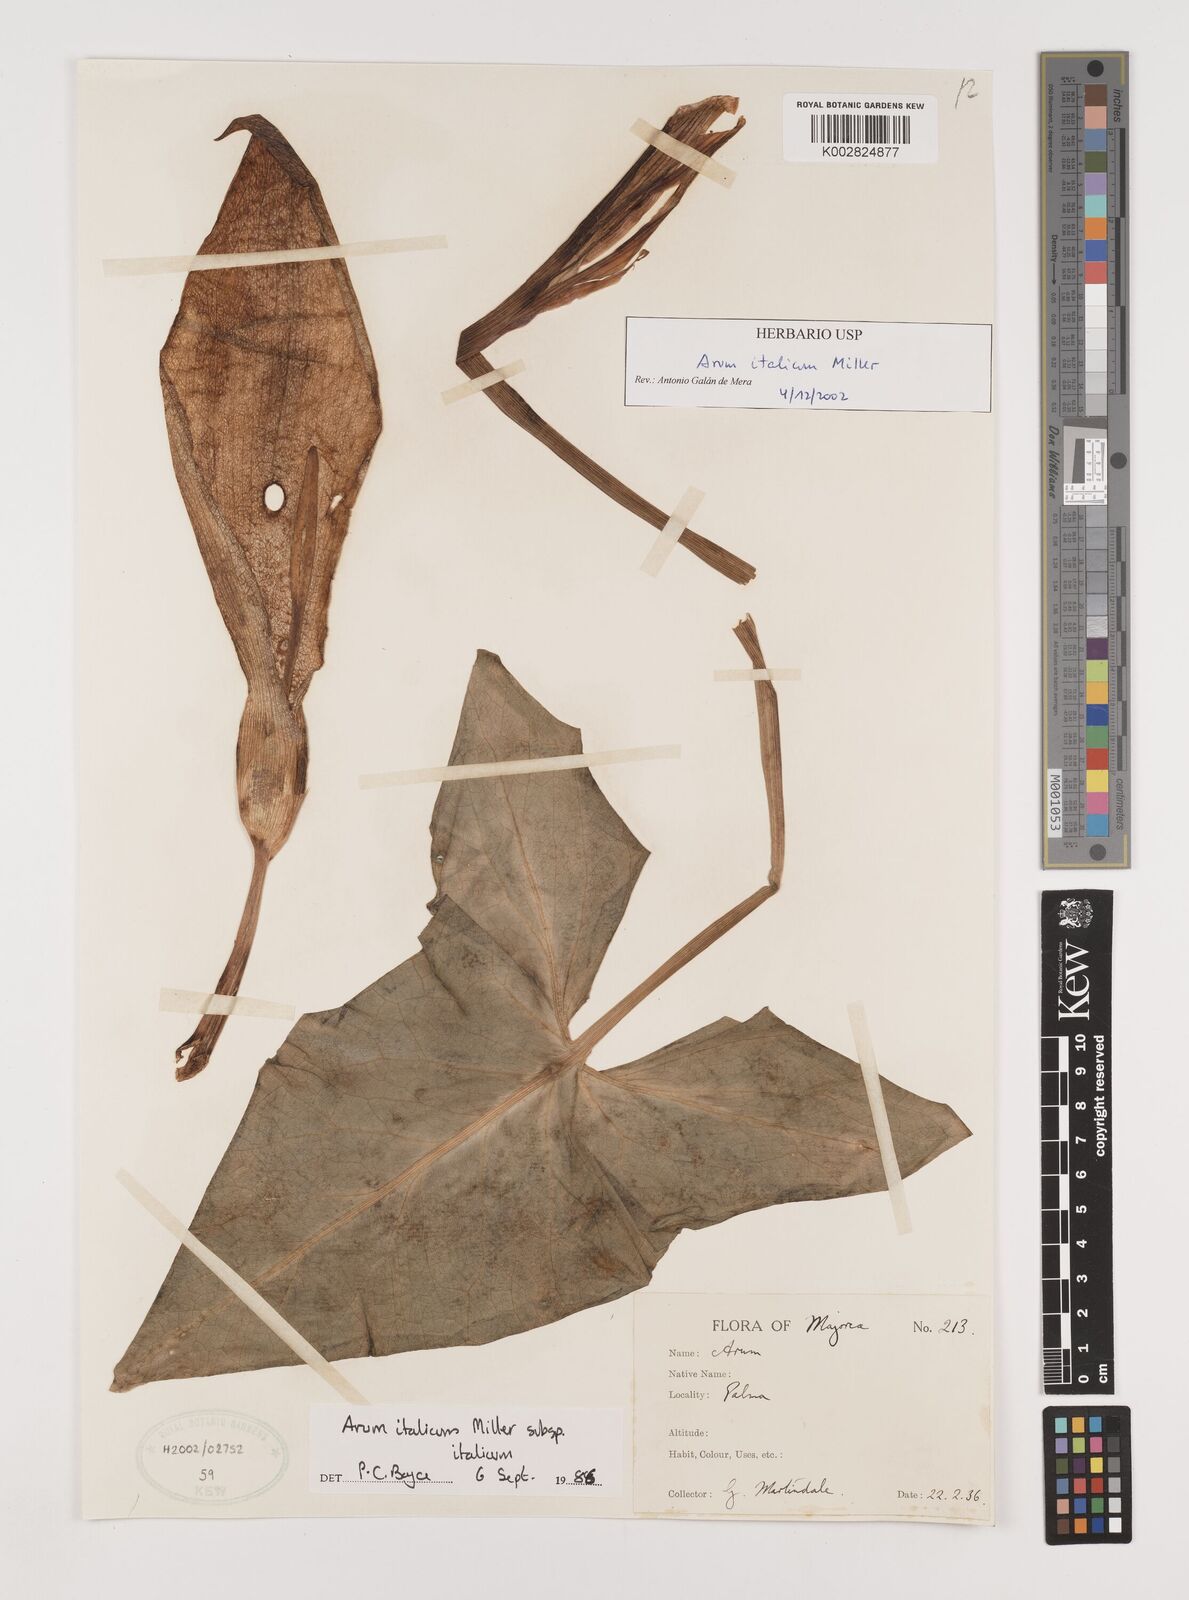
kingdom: Plantae
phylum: Tracheophyta
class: Liliopsida
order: Alismatales
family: Araceae
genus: Arum
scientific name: Arum italicum
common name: Italian lords-and-ladies
